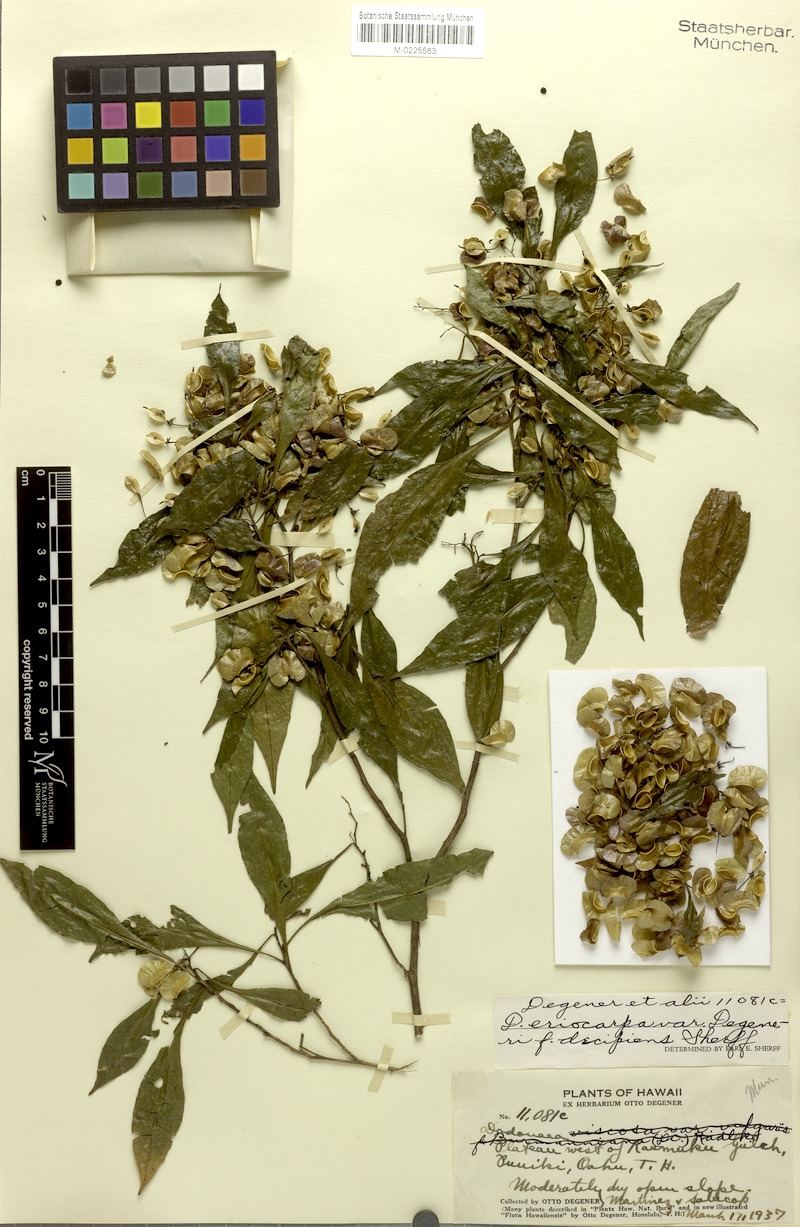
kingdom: Plantae
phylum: Tracheophyta
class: Magnoliopsida
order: Sapindales
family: Sapindaceae
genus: Dodonaea
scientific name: Dodonaea viscosa
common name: Hopbush
